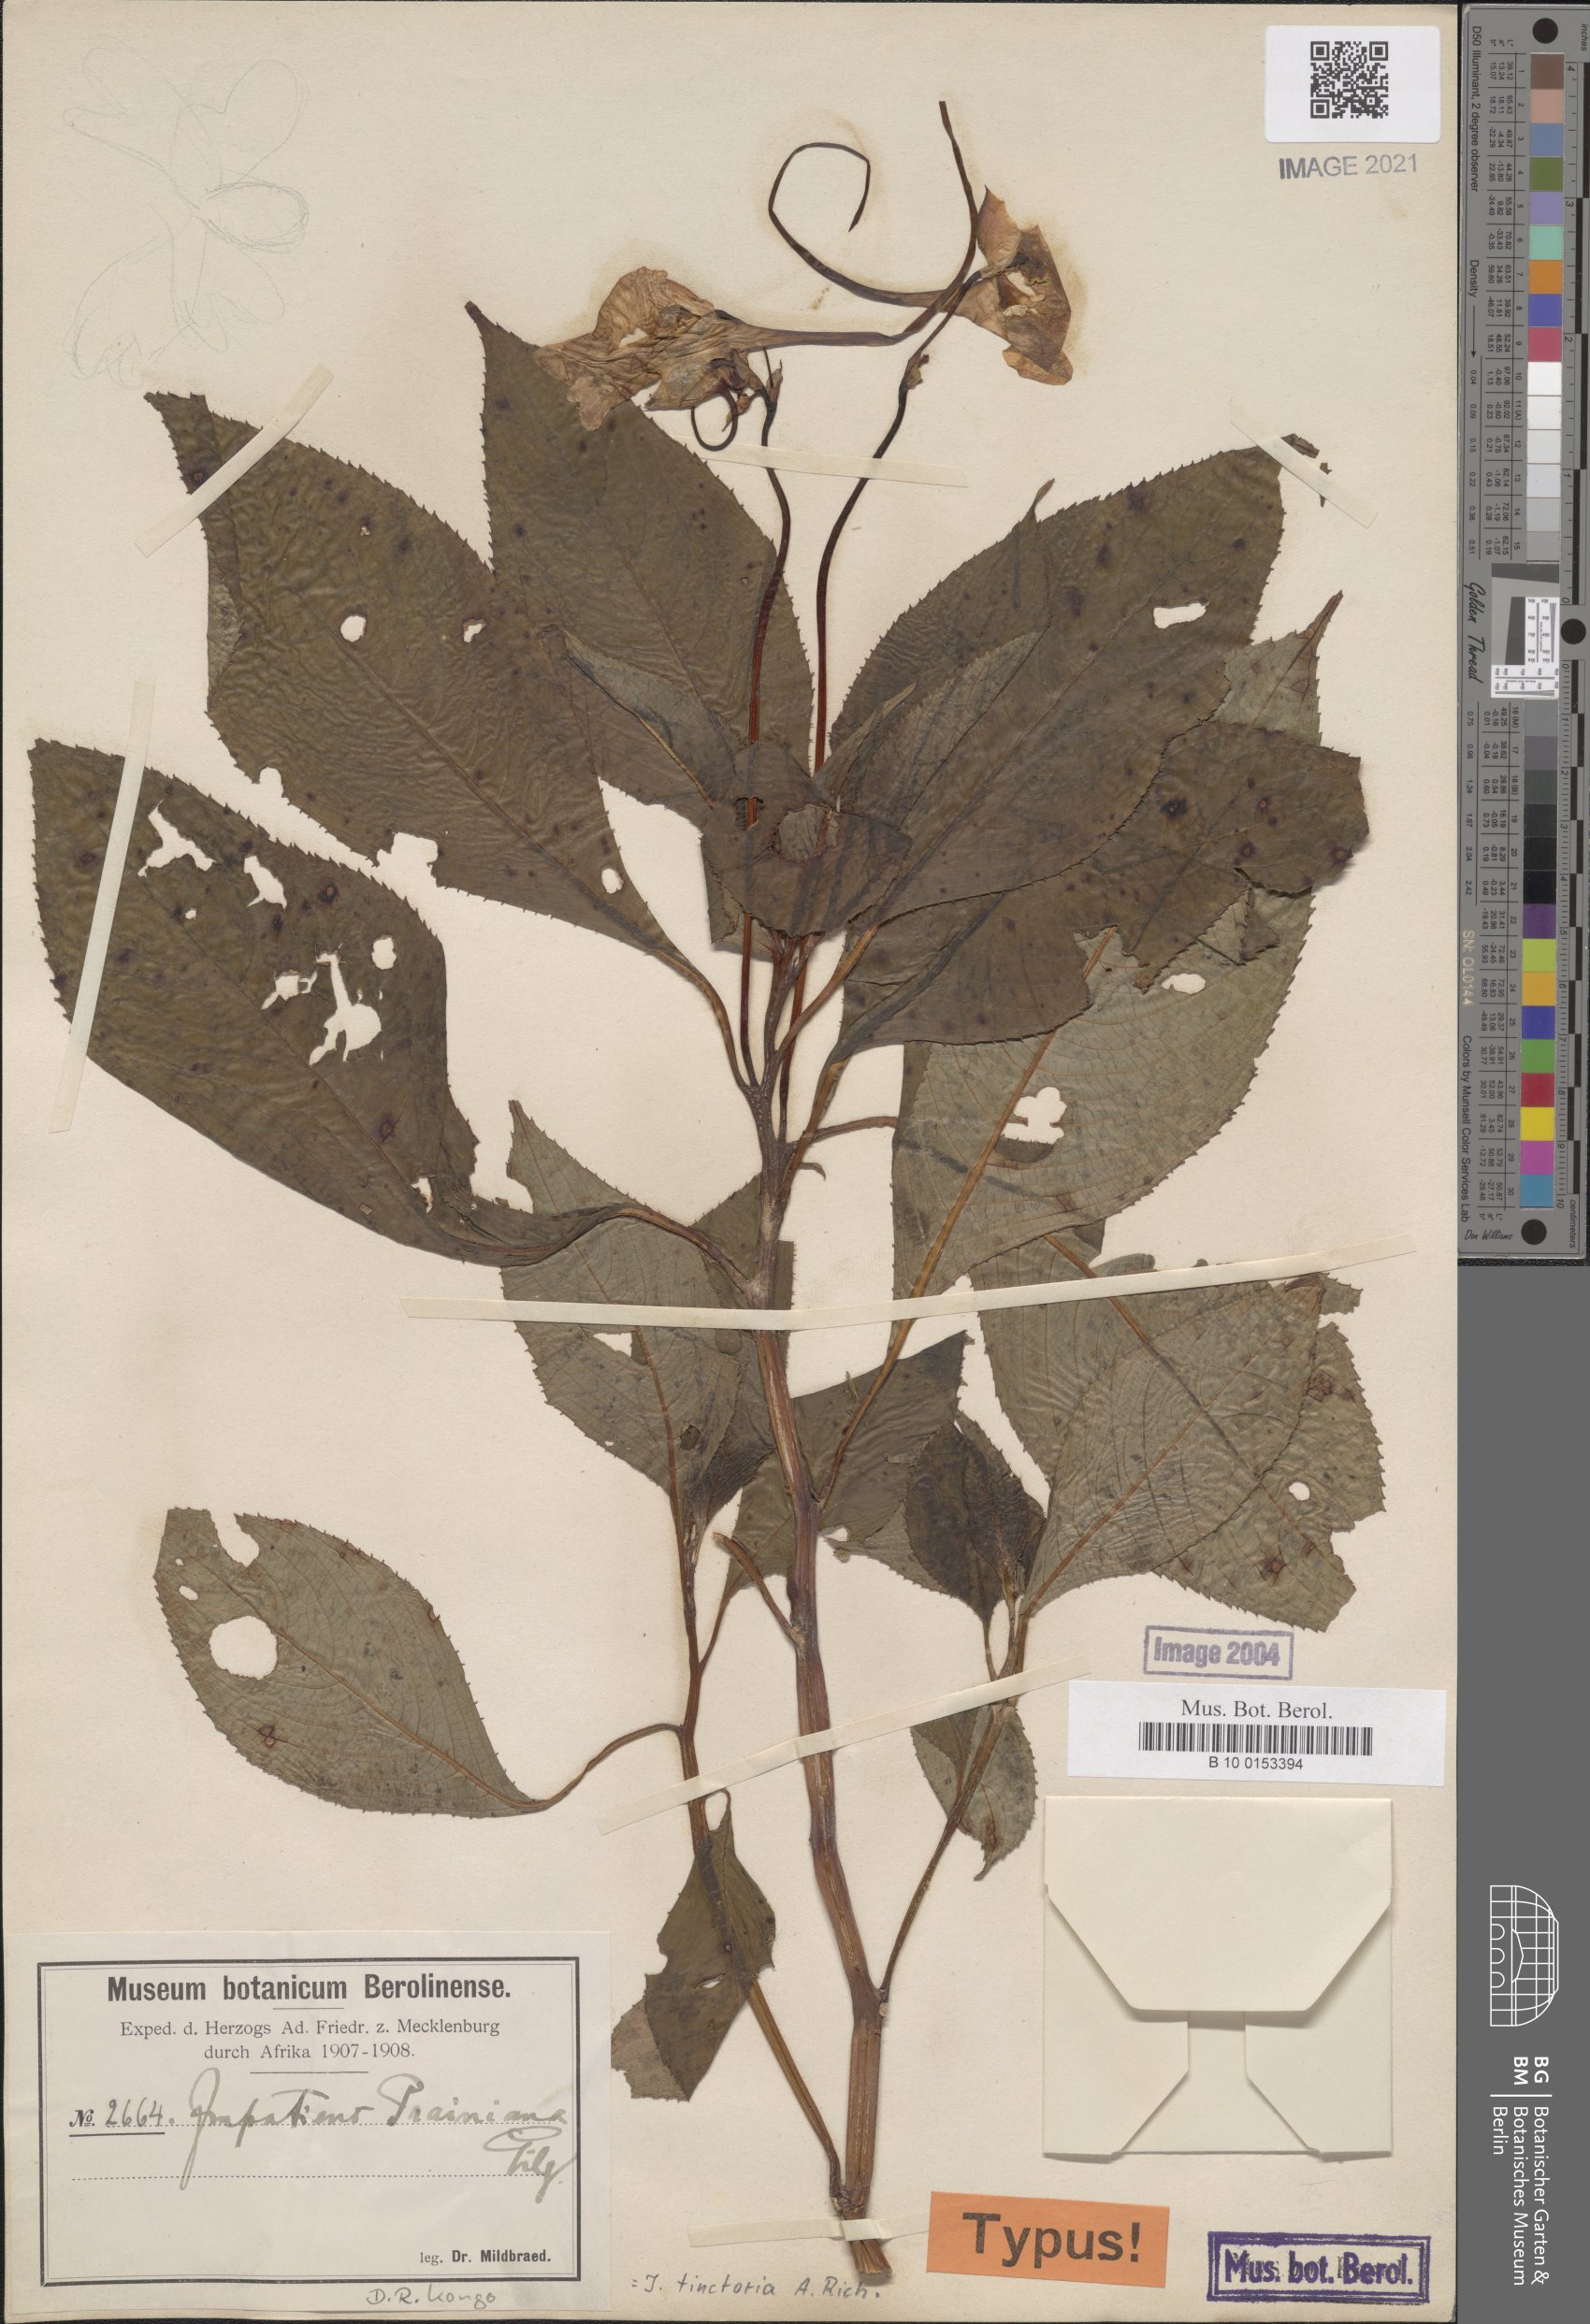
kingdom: Plantae
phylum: Tracheophyta
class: Magnoliopsida
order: Ericales
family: Balsaminaceae
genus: Impatiens
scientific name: Impatiens tinctoria
